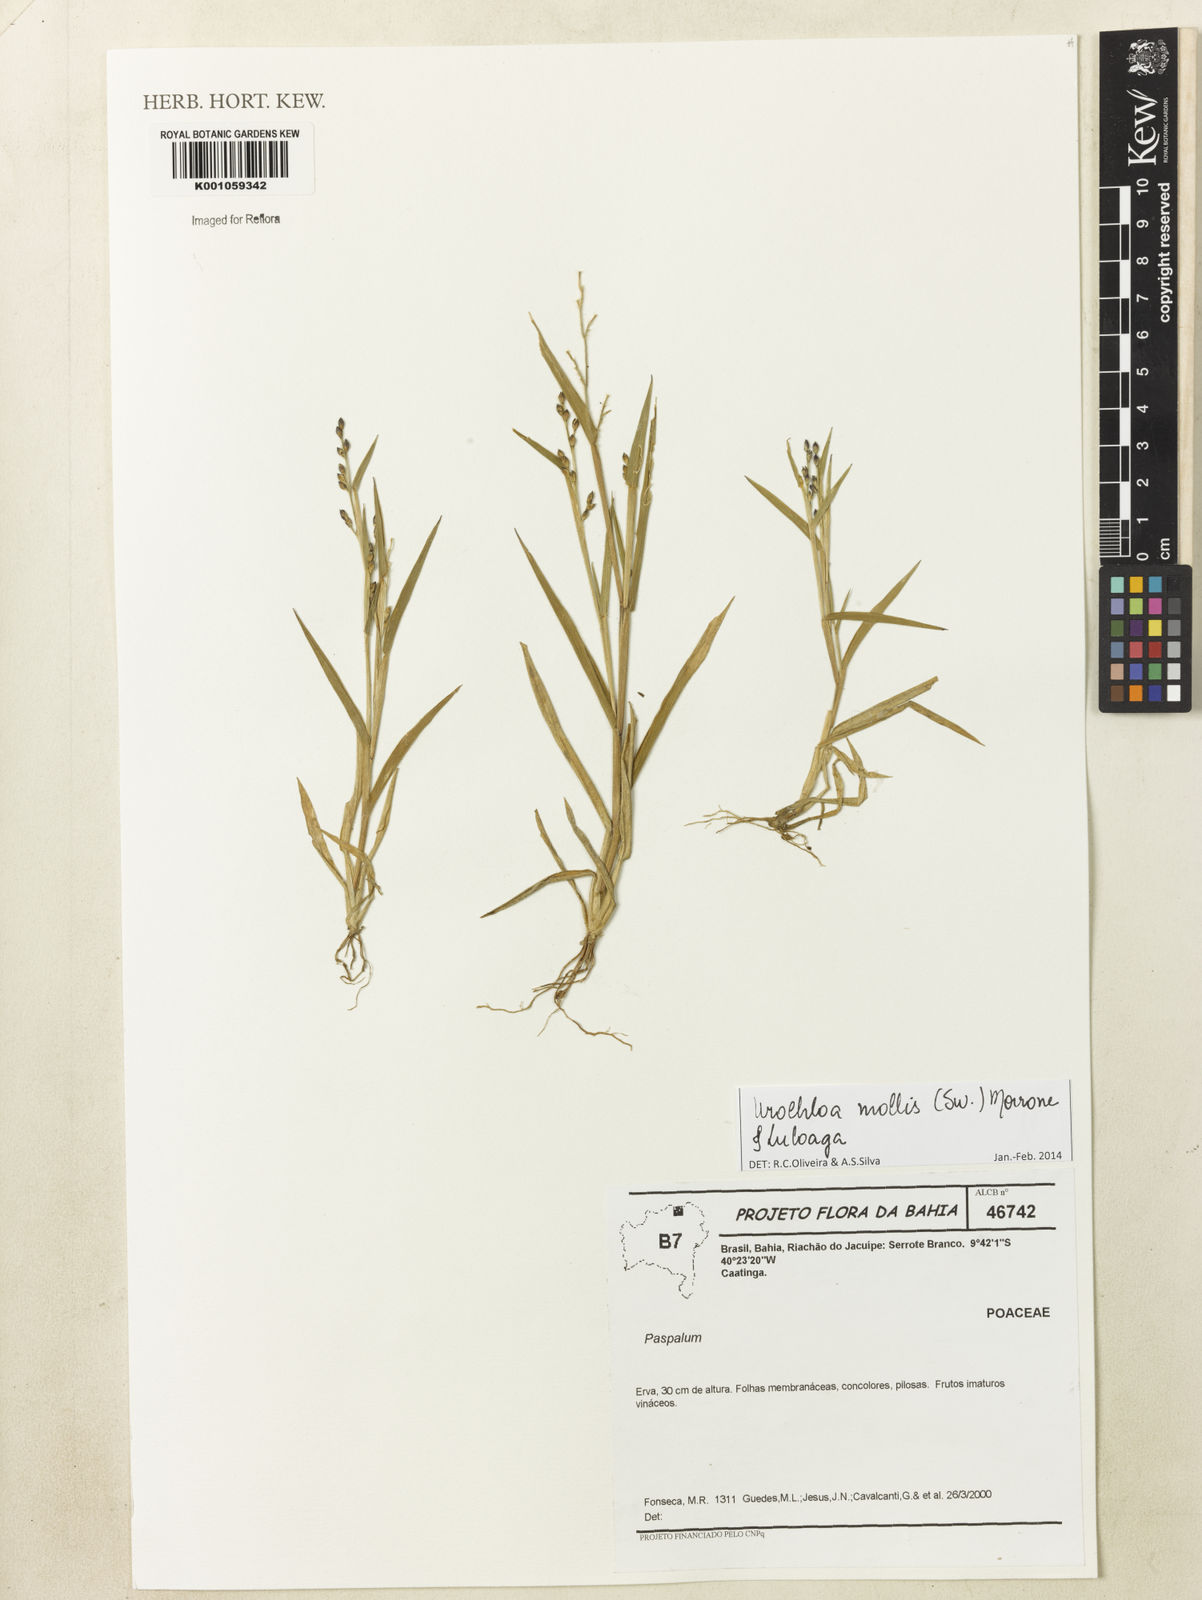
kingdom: Plantae
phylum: Tracheophyta
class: Liliopsida
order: Poales
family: Poaceae
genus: Urochloa
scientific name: Urochloa mollis
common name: Grass
